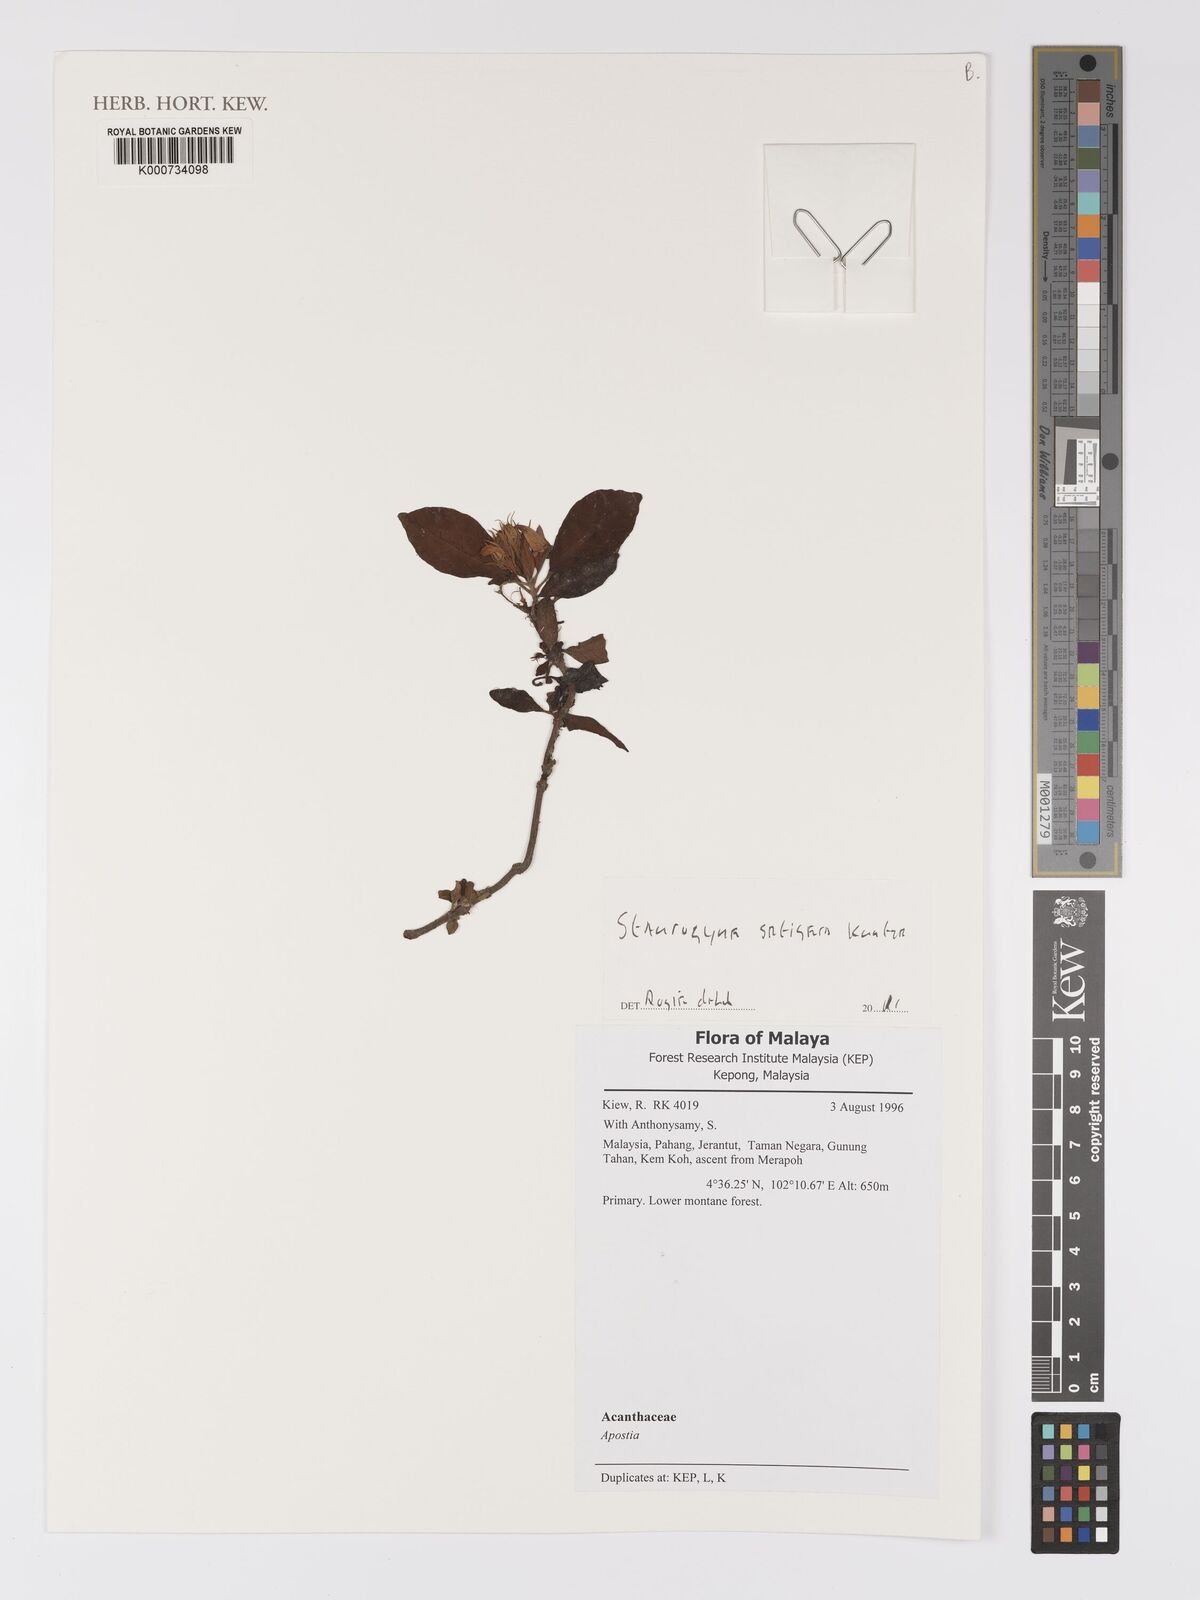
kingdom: Plantae
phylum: Tracheophyta
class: Magnoliopsida
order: Lamiales
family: Acanthaceae
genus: Staurogyne
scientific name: Staurogyne setigera
